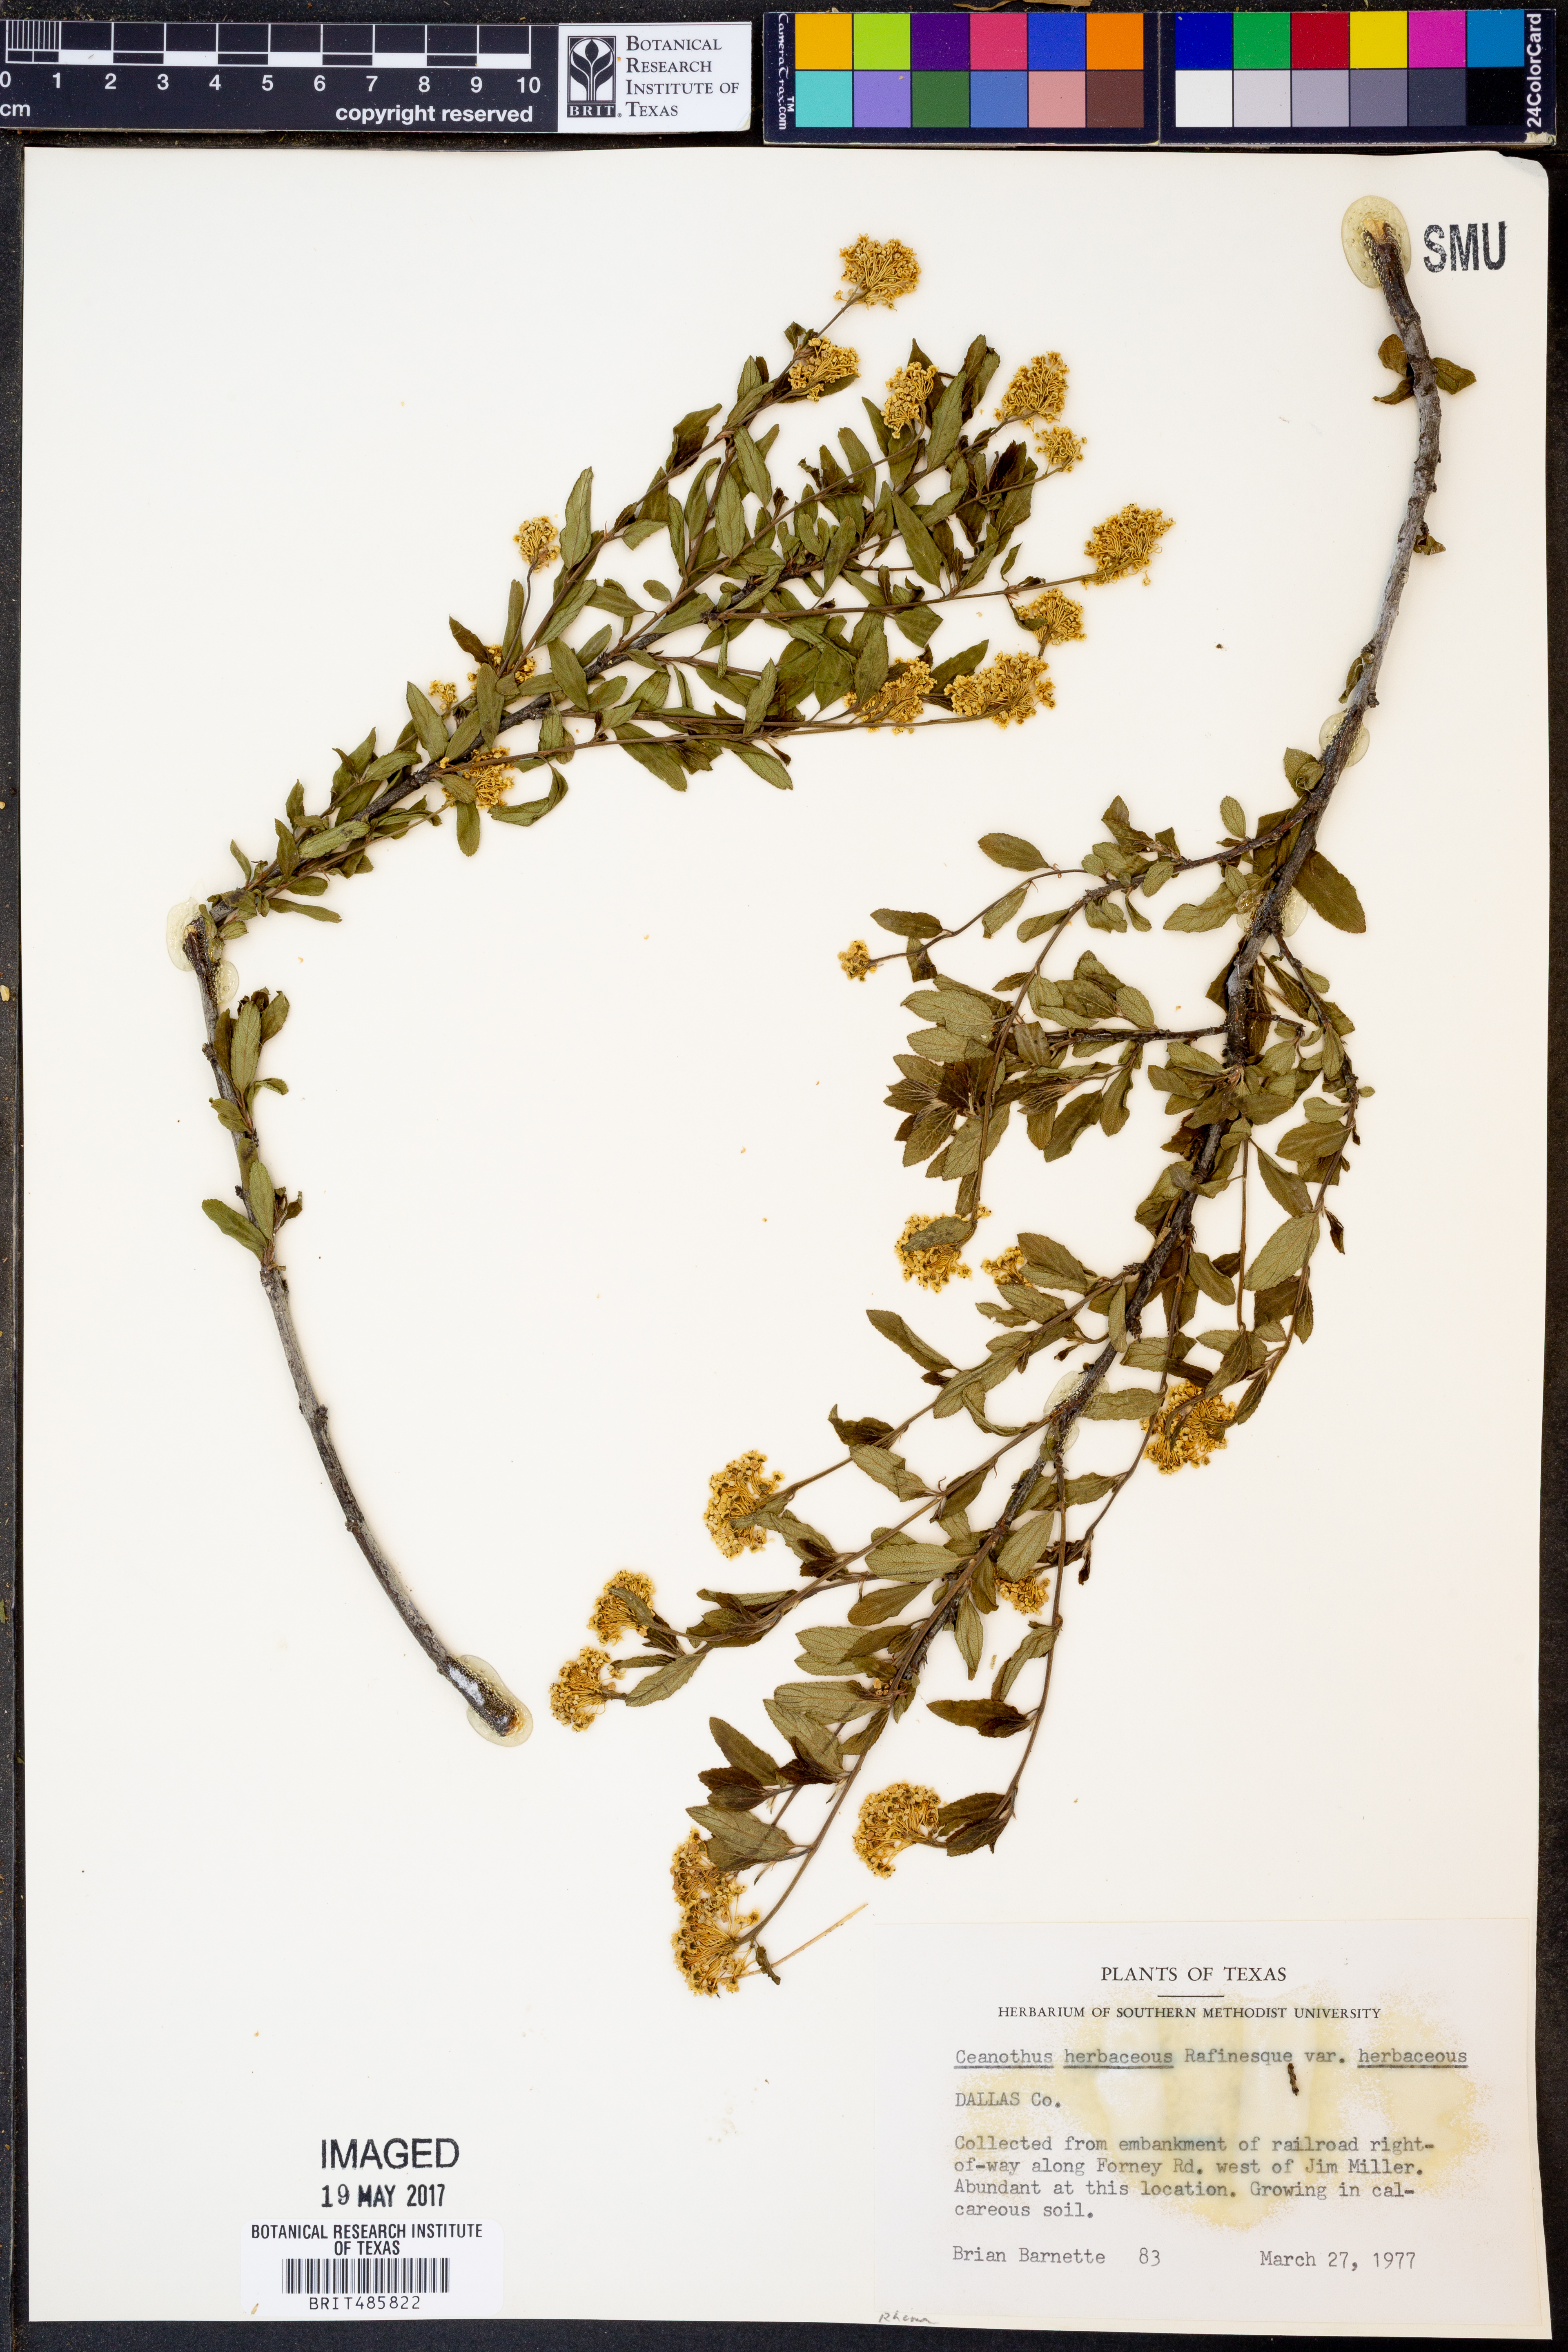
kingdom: Plantae
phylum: Tracheophyta
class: Magnoliopsida
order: Rosales
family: Rhamnaceae
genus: Ceanothus
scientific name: Ceanothus herbaceus
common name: Inland ceanothus
